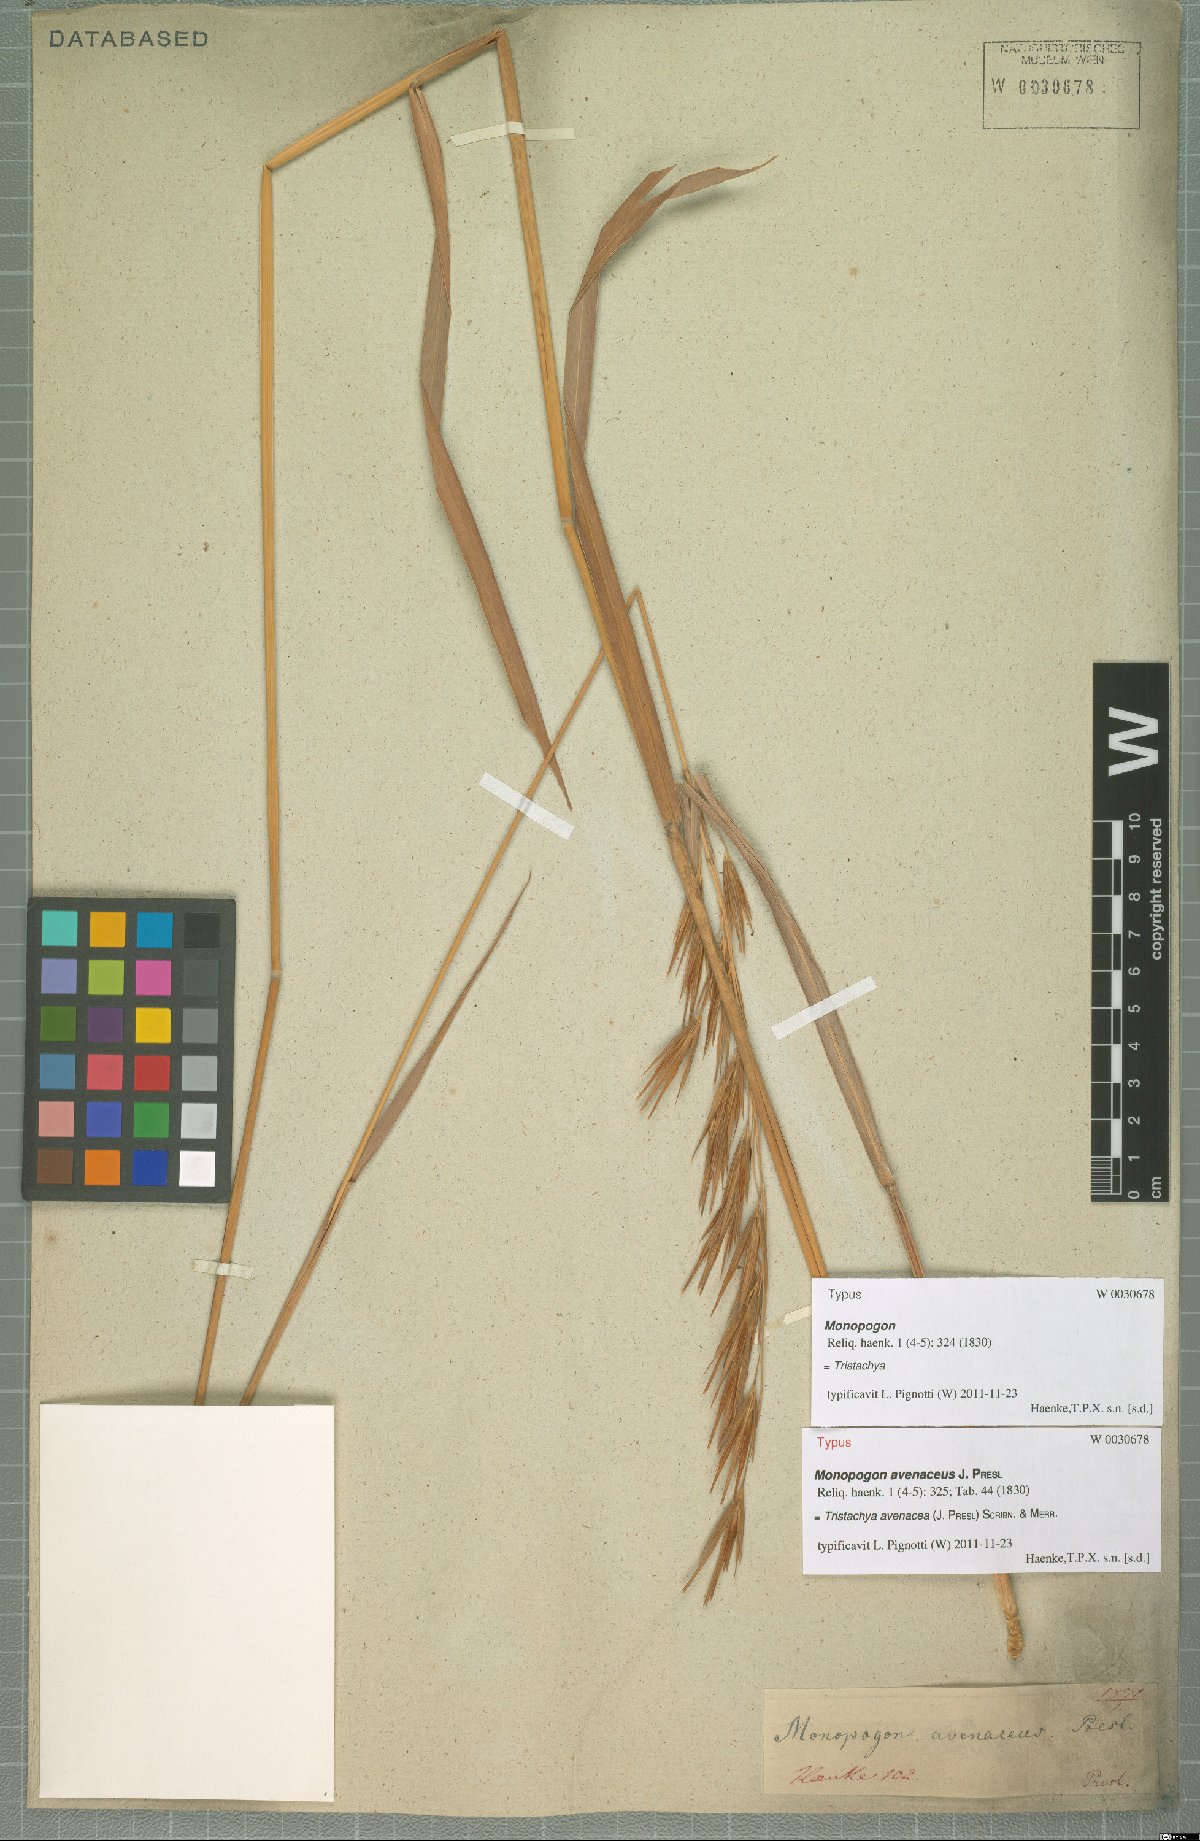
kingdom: Plantae
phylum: Tracheophyta
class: Liliopsida
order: Poales
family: Poaceae
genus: Tristachya
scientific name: Tristachya avenacea
